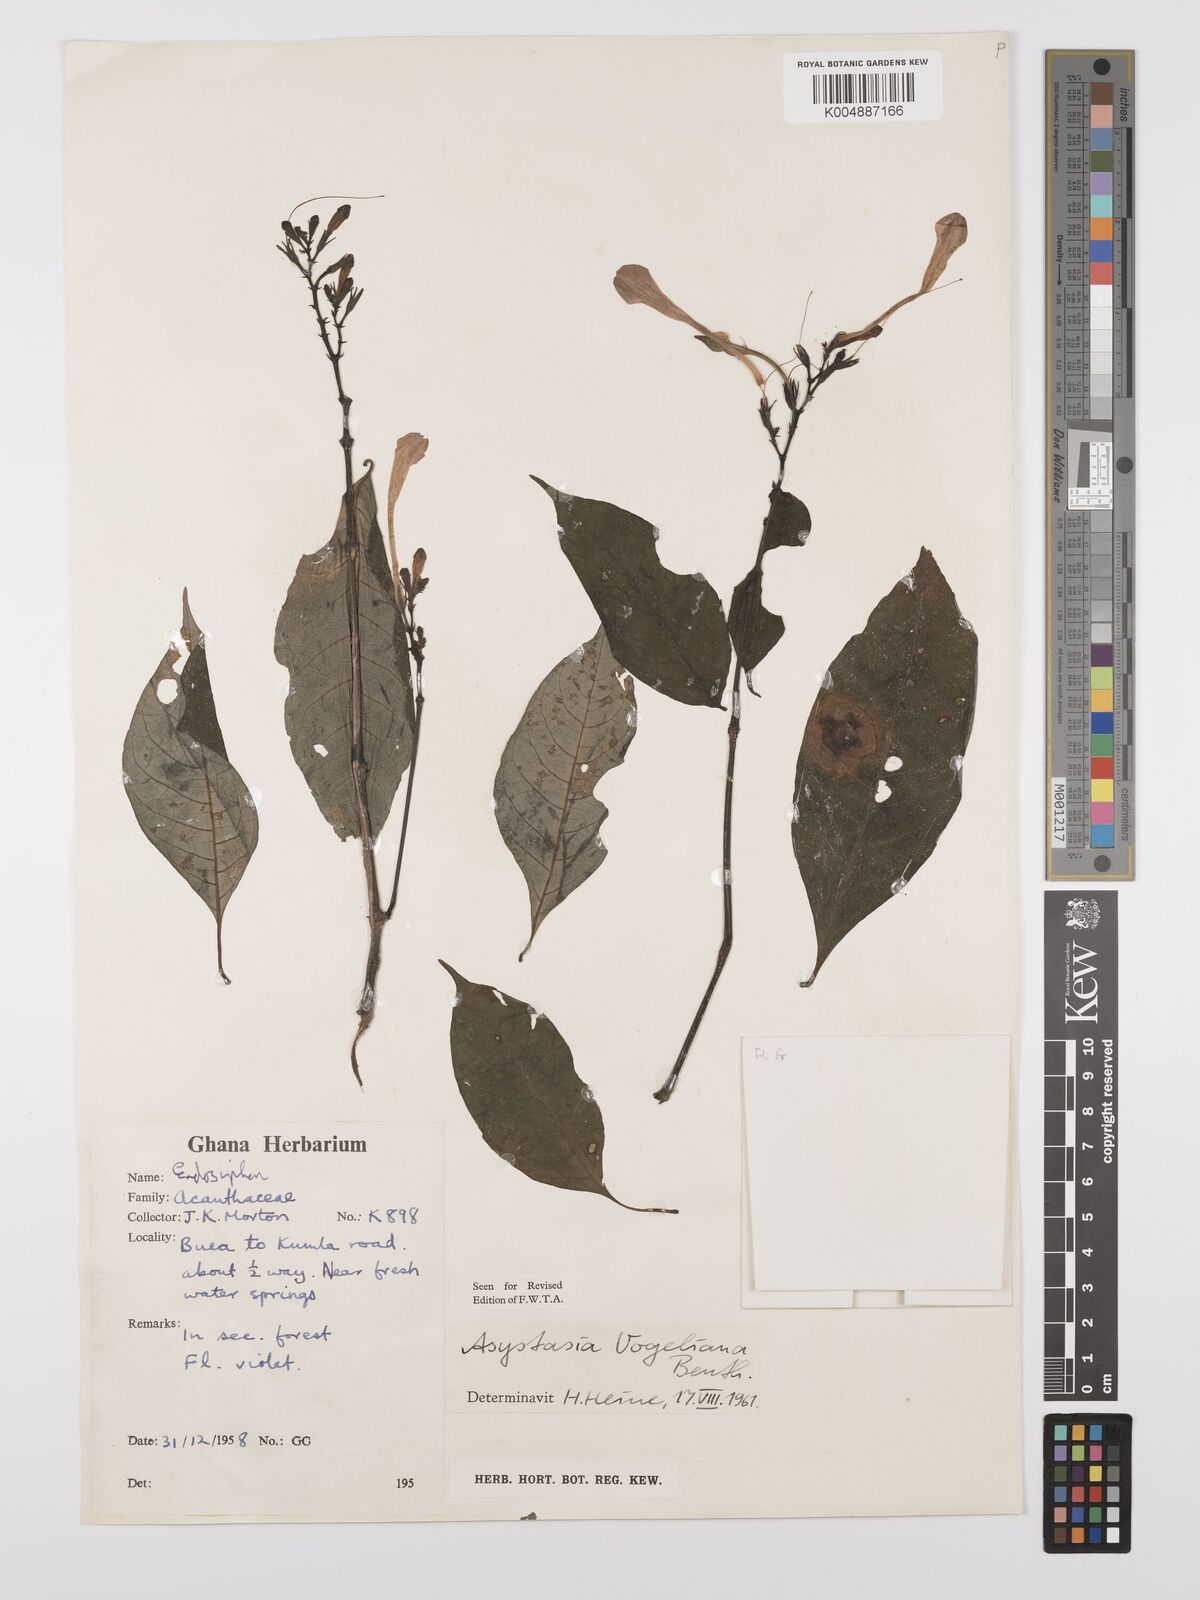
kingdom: Plantae
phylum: Tracheophyta
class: Magnoliopsida
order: Lamiales
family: Acanthaceae
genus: Asystasia
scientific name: Asystasia vogeliana
